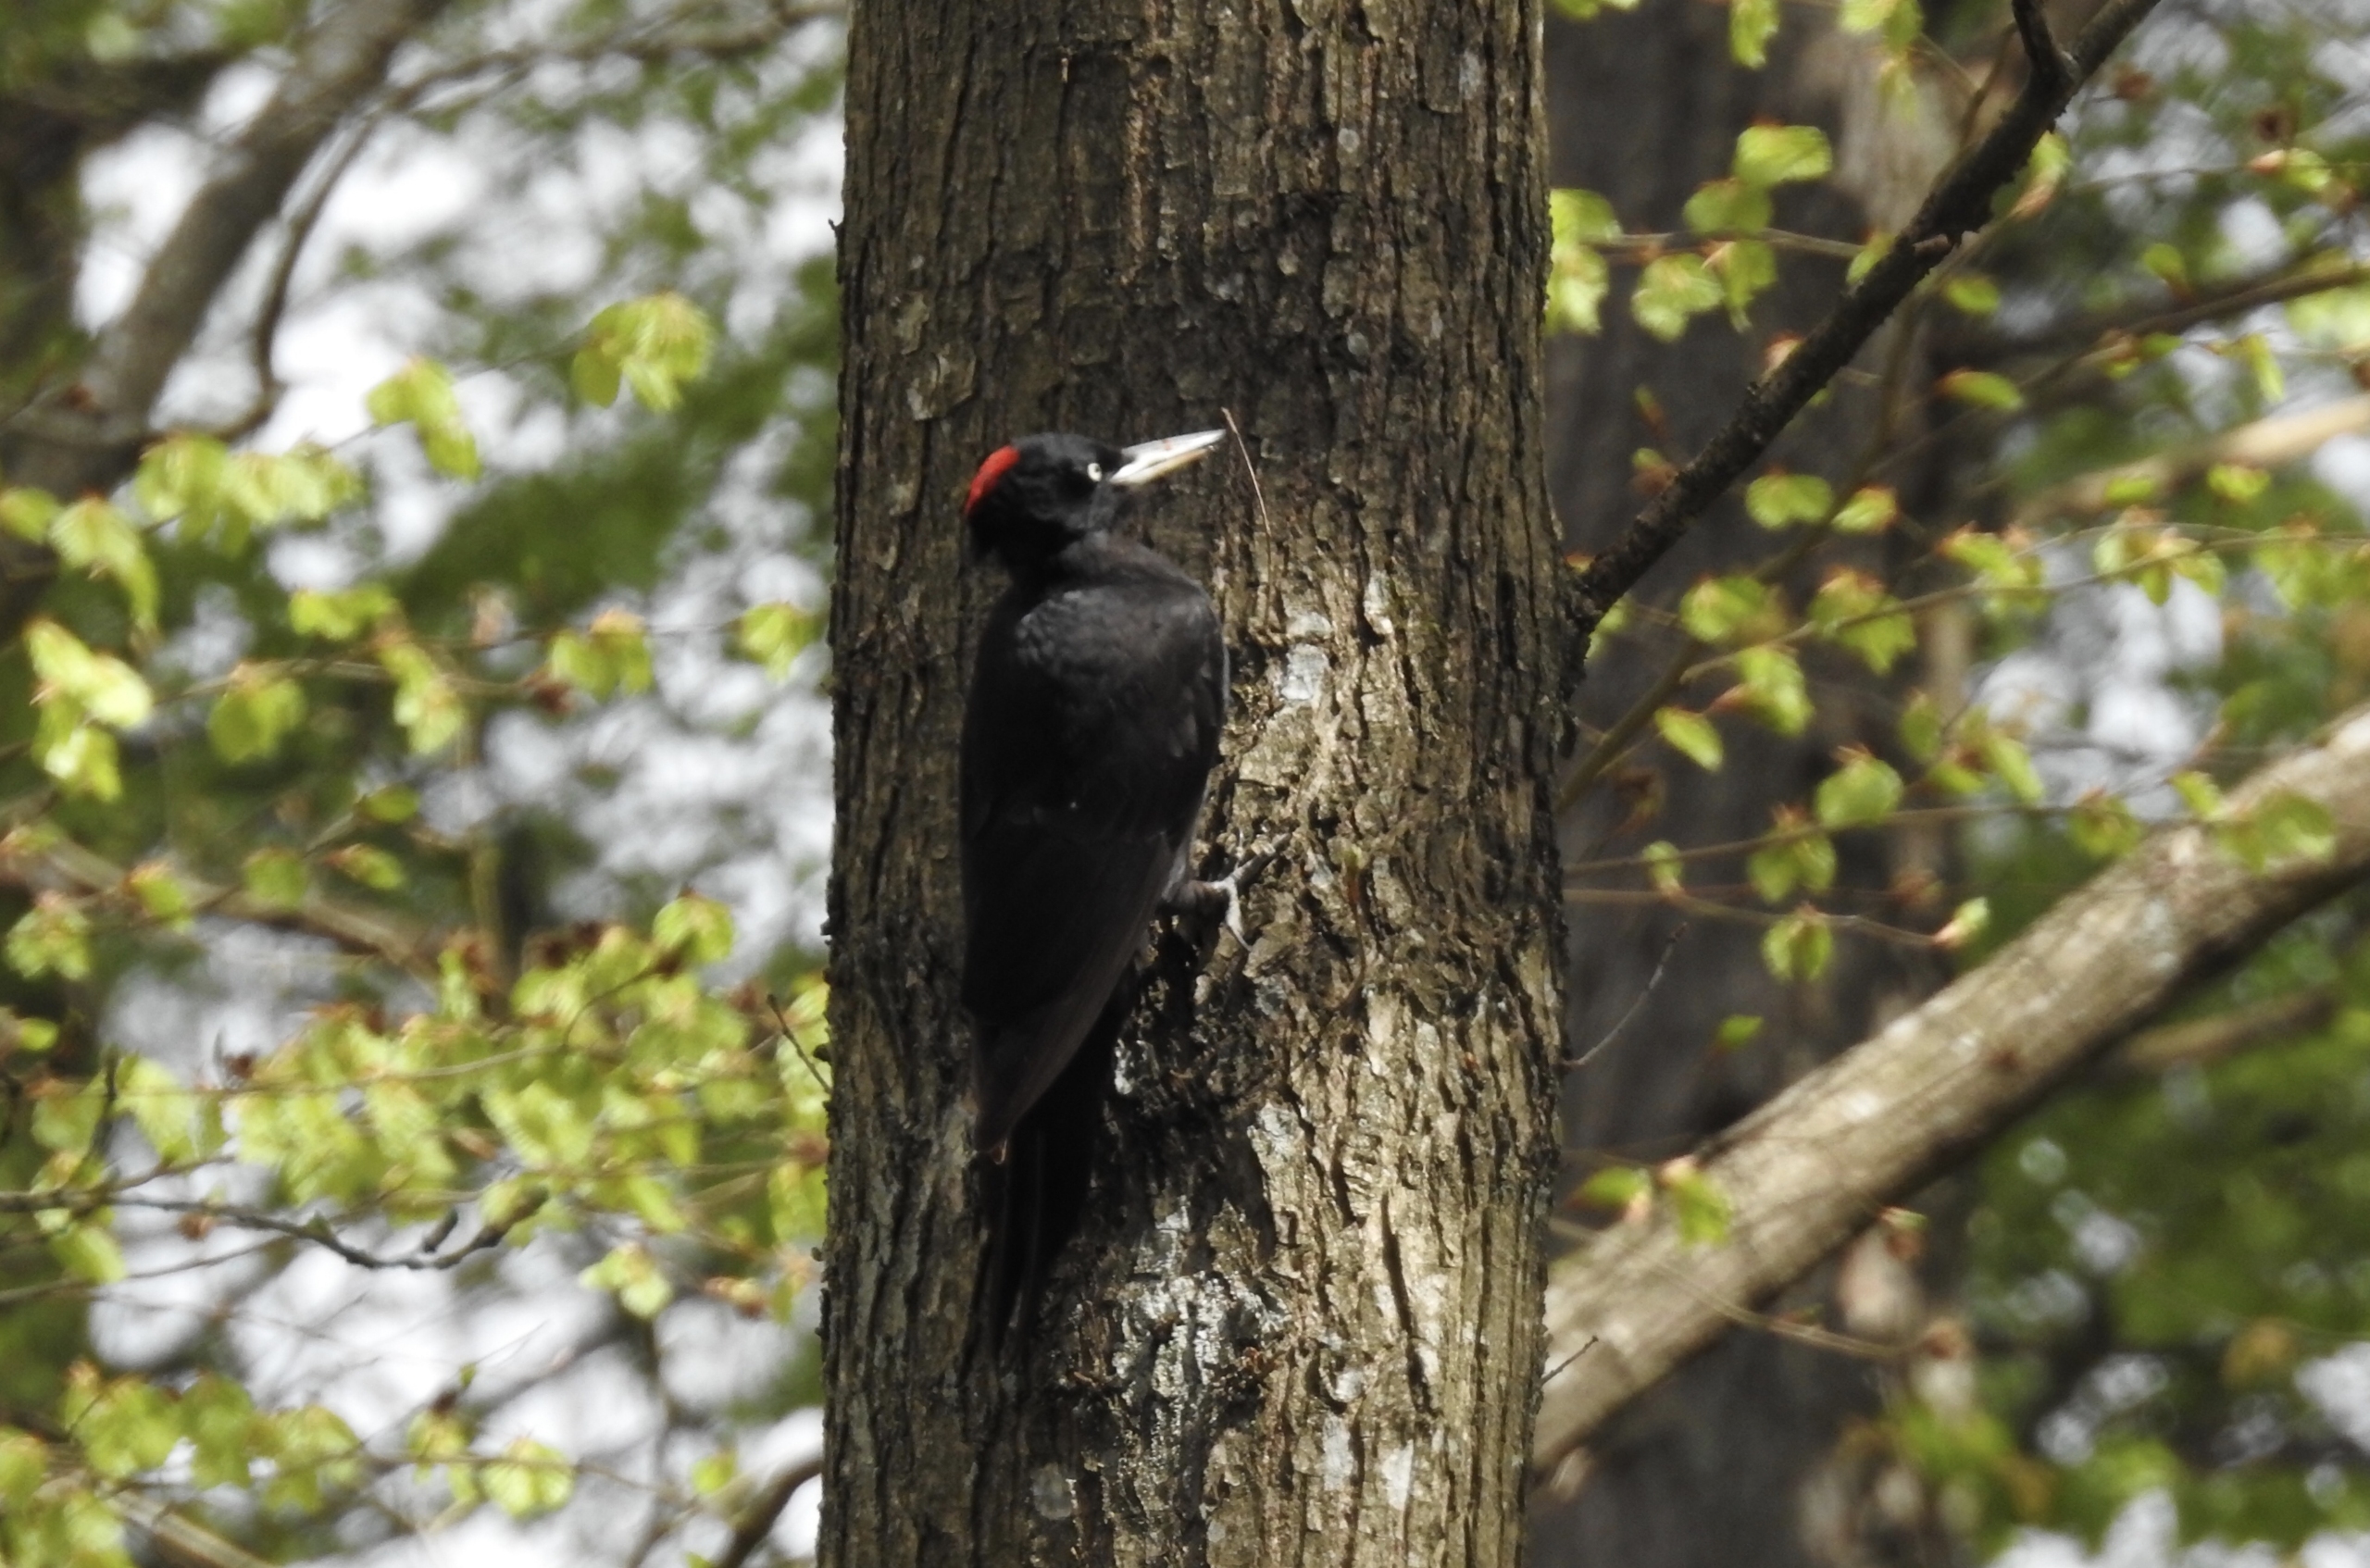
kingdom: Animalia
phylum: Chordata
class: Aves
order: Piciformes
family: Picidae
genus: Dryocopus
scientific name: Dryocopus martius
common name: Sortspætte
